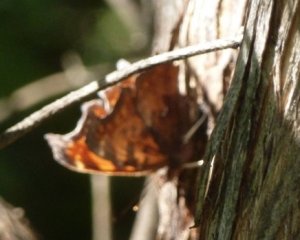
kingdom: Animalia
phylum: Arthropoda
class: Insecta
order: Lepidoptera
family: Nymphalidae
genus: Polygonia
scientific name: Polygonia comma
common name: Eastern Comma
